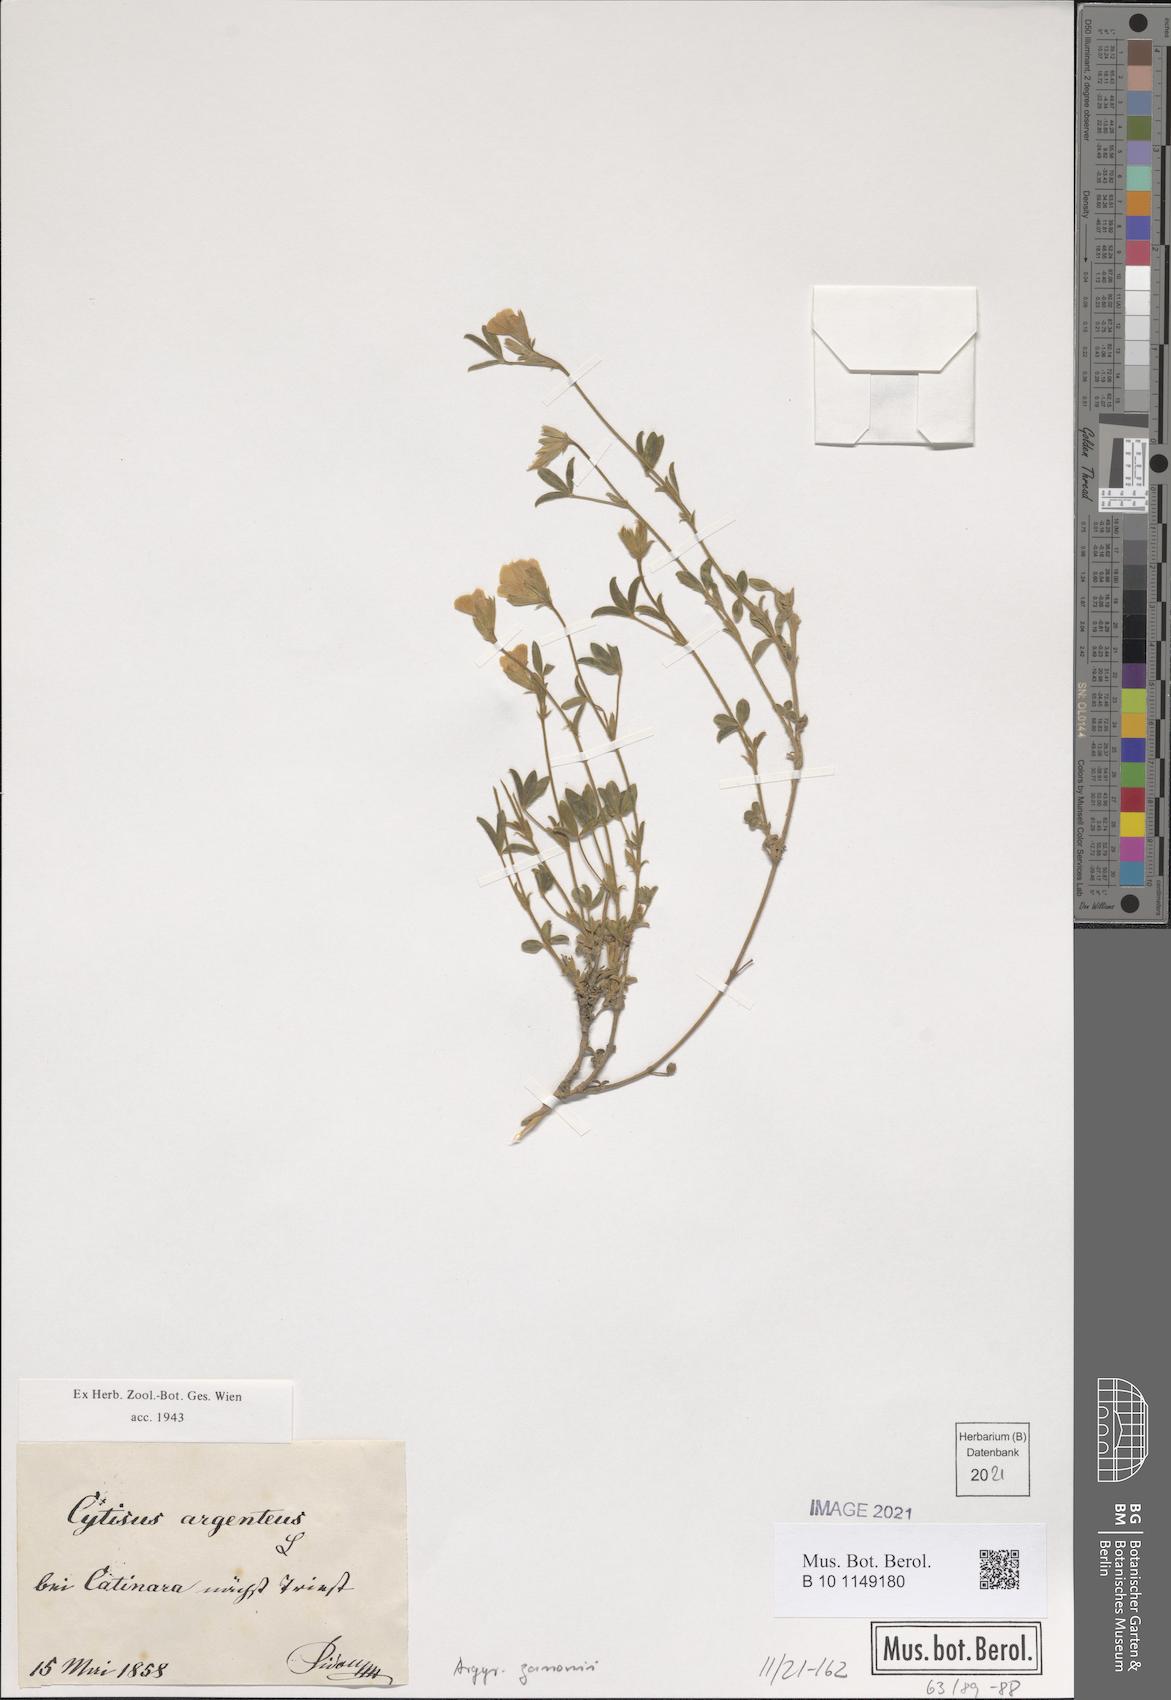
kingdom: Plantae
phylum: Tracheophyta
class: Magnoliopsida
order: Fabales
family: Fabaceae
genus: Argyrolobium
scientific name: Argyrolobium zanonii
